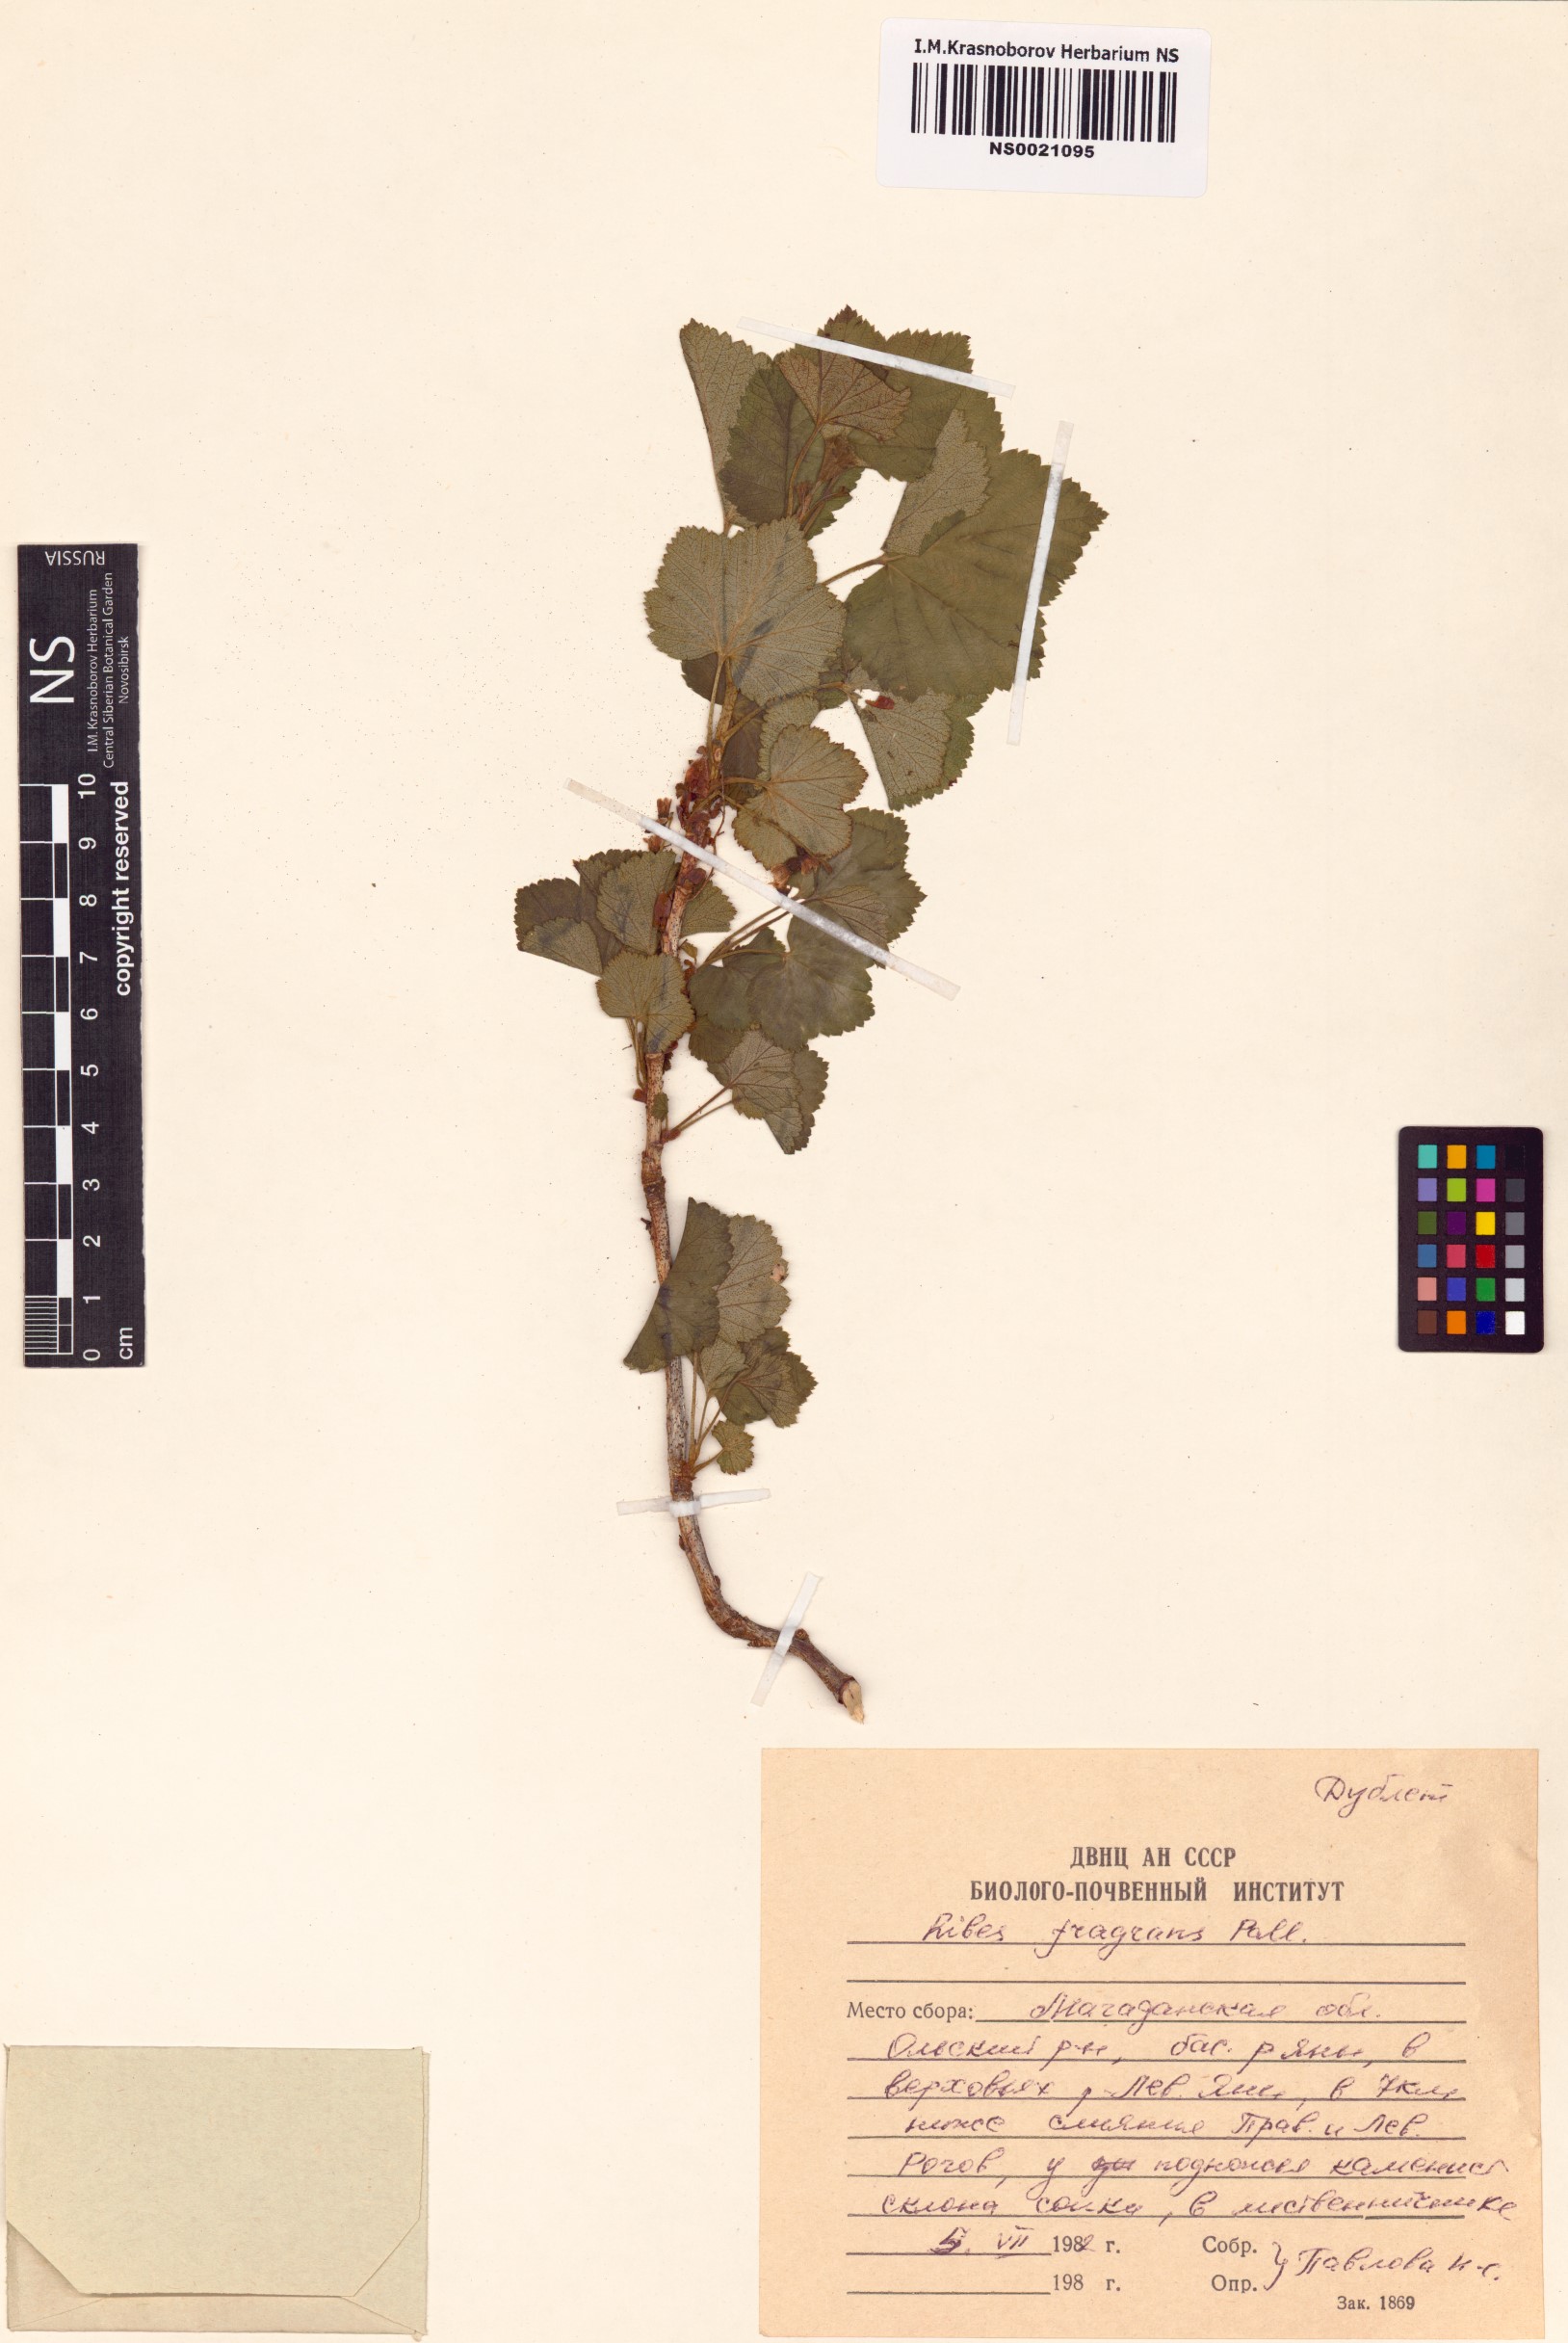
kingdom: Plantae
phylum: Tracheophyta
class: Magnoliopsida
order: Saxifragales
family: Grossulariaceae
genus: Ribes
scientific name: Ribes fragrans
